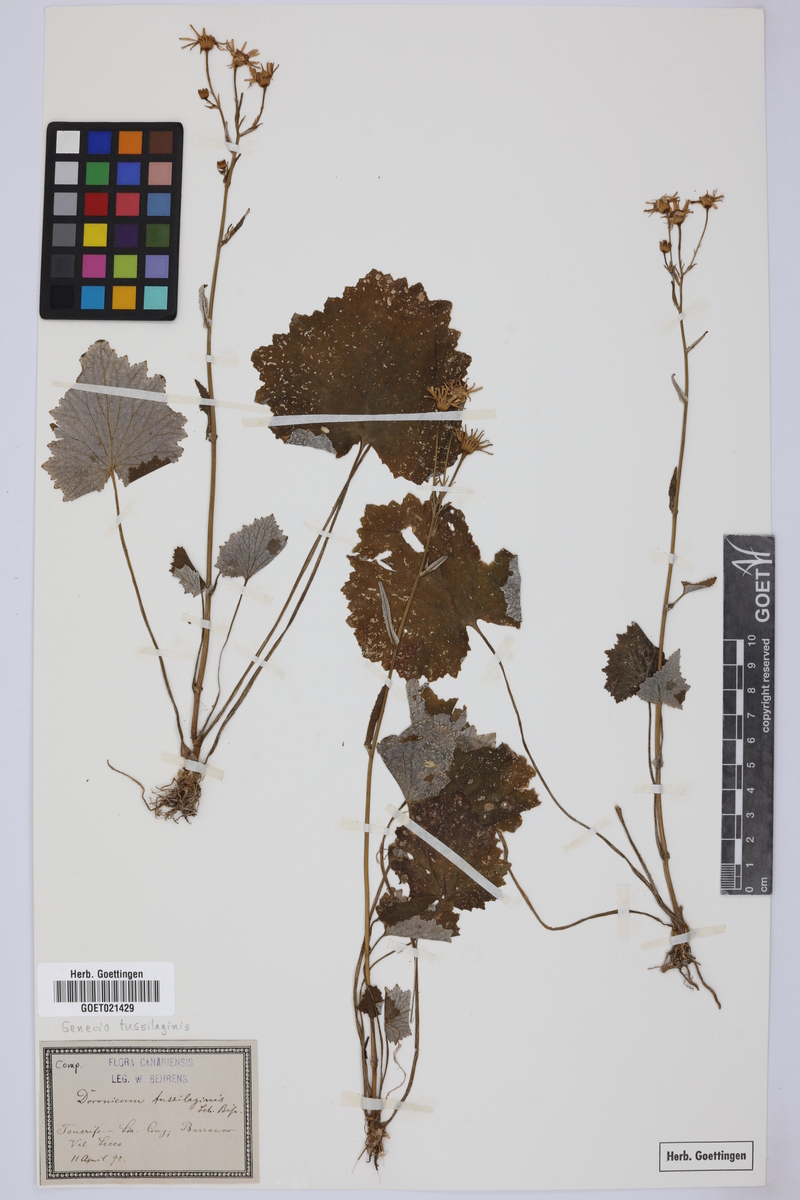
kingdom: Plantae
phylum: Tracheophyta
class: Magnoliopsida
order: Asterales
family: Asteraceae
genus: Pericallis
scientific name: Pericallis tussilaginis
